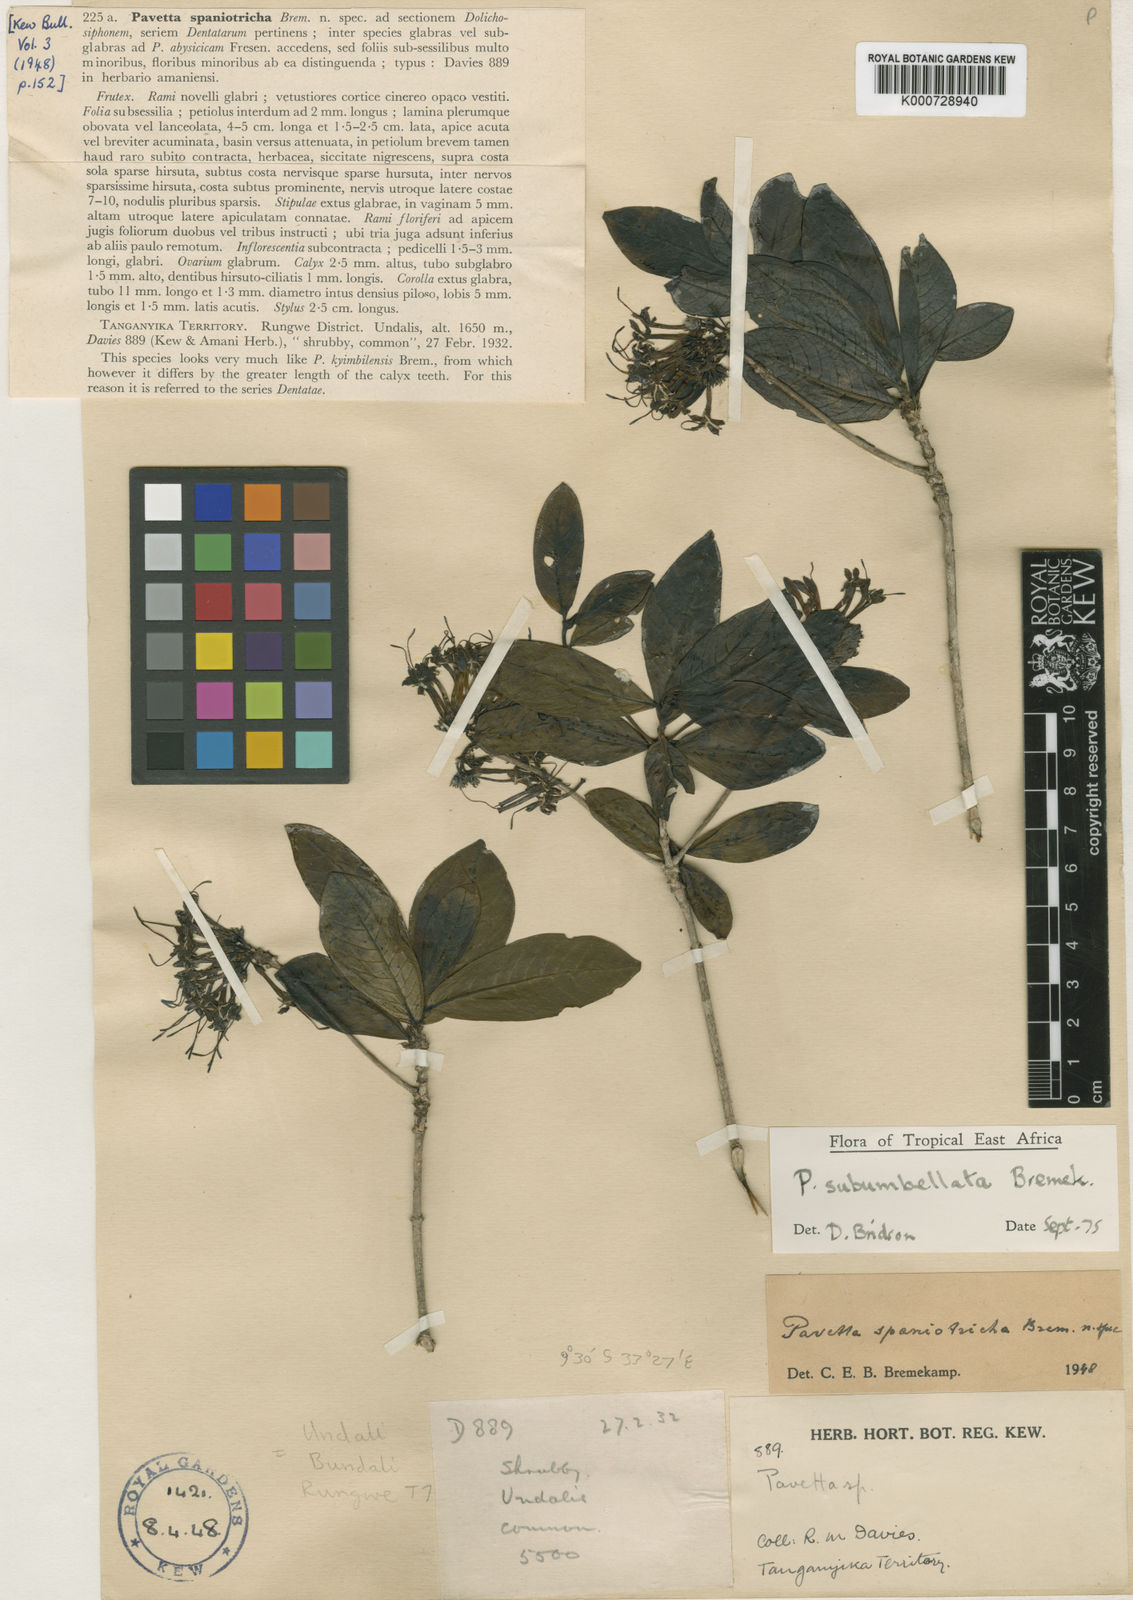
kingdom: Plantae
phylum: Tracheophyta
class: Magnoliopsida
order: Gentianales
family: Rubiaceae
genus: Pavetta
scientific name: Pavetta subumbellata
